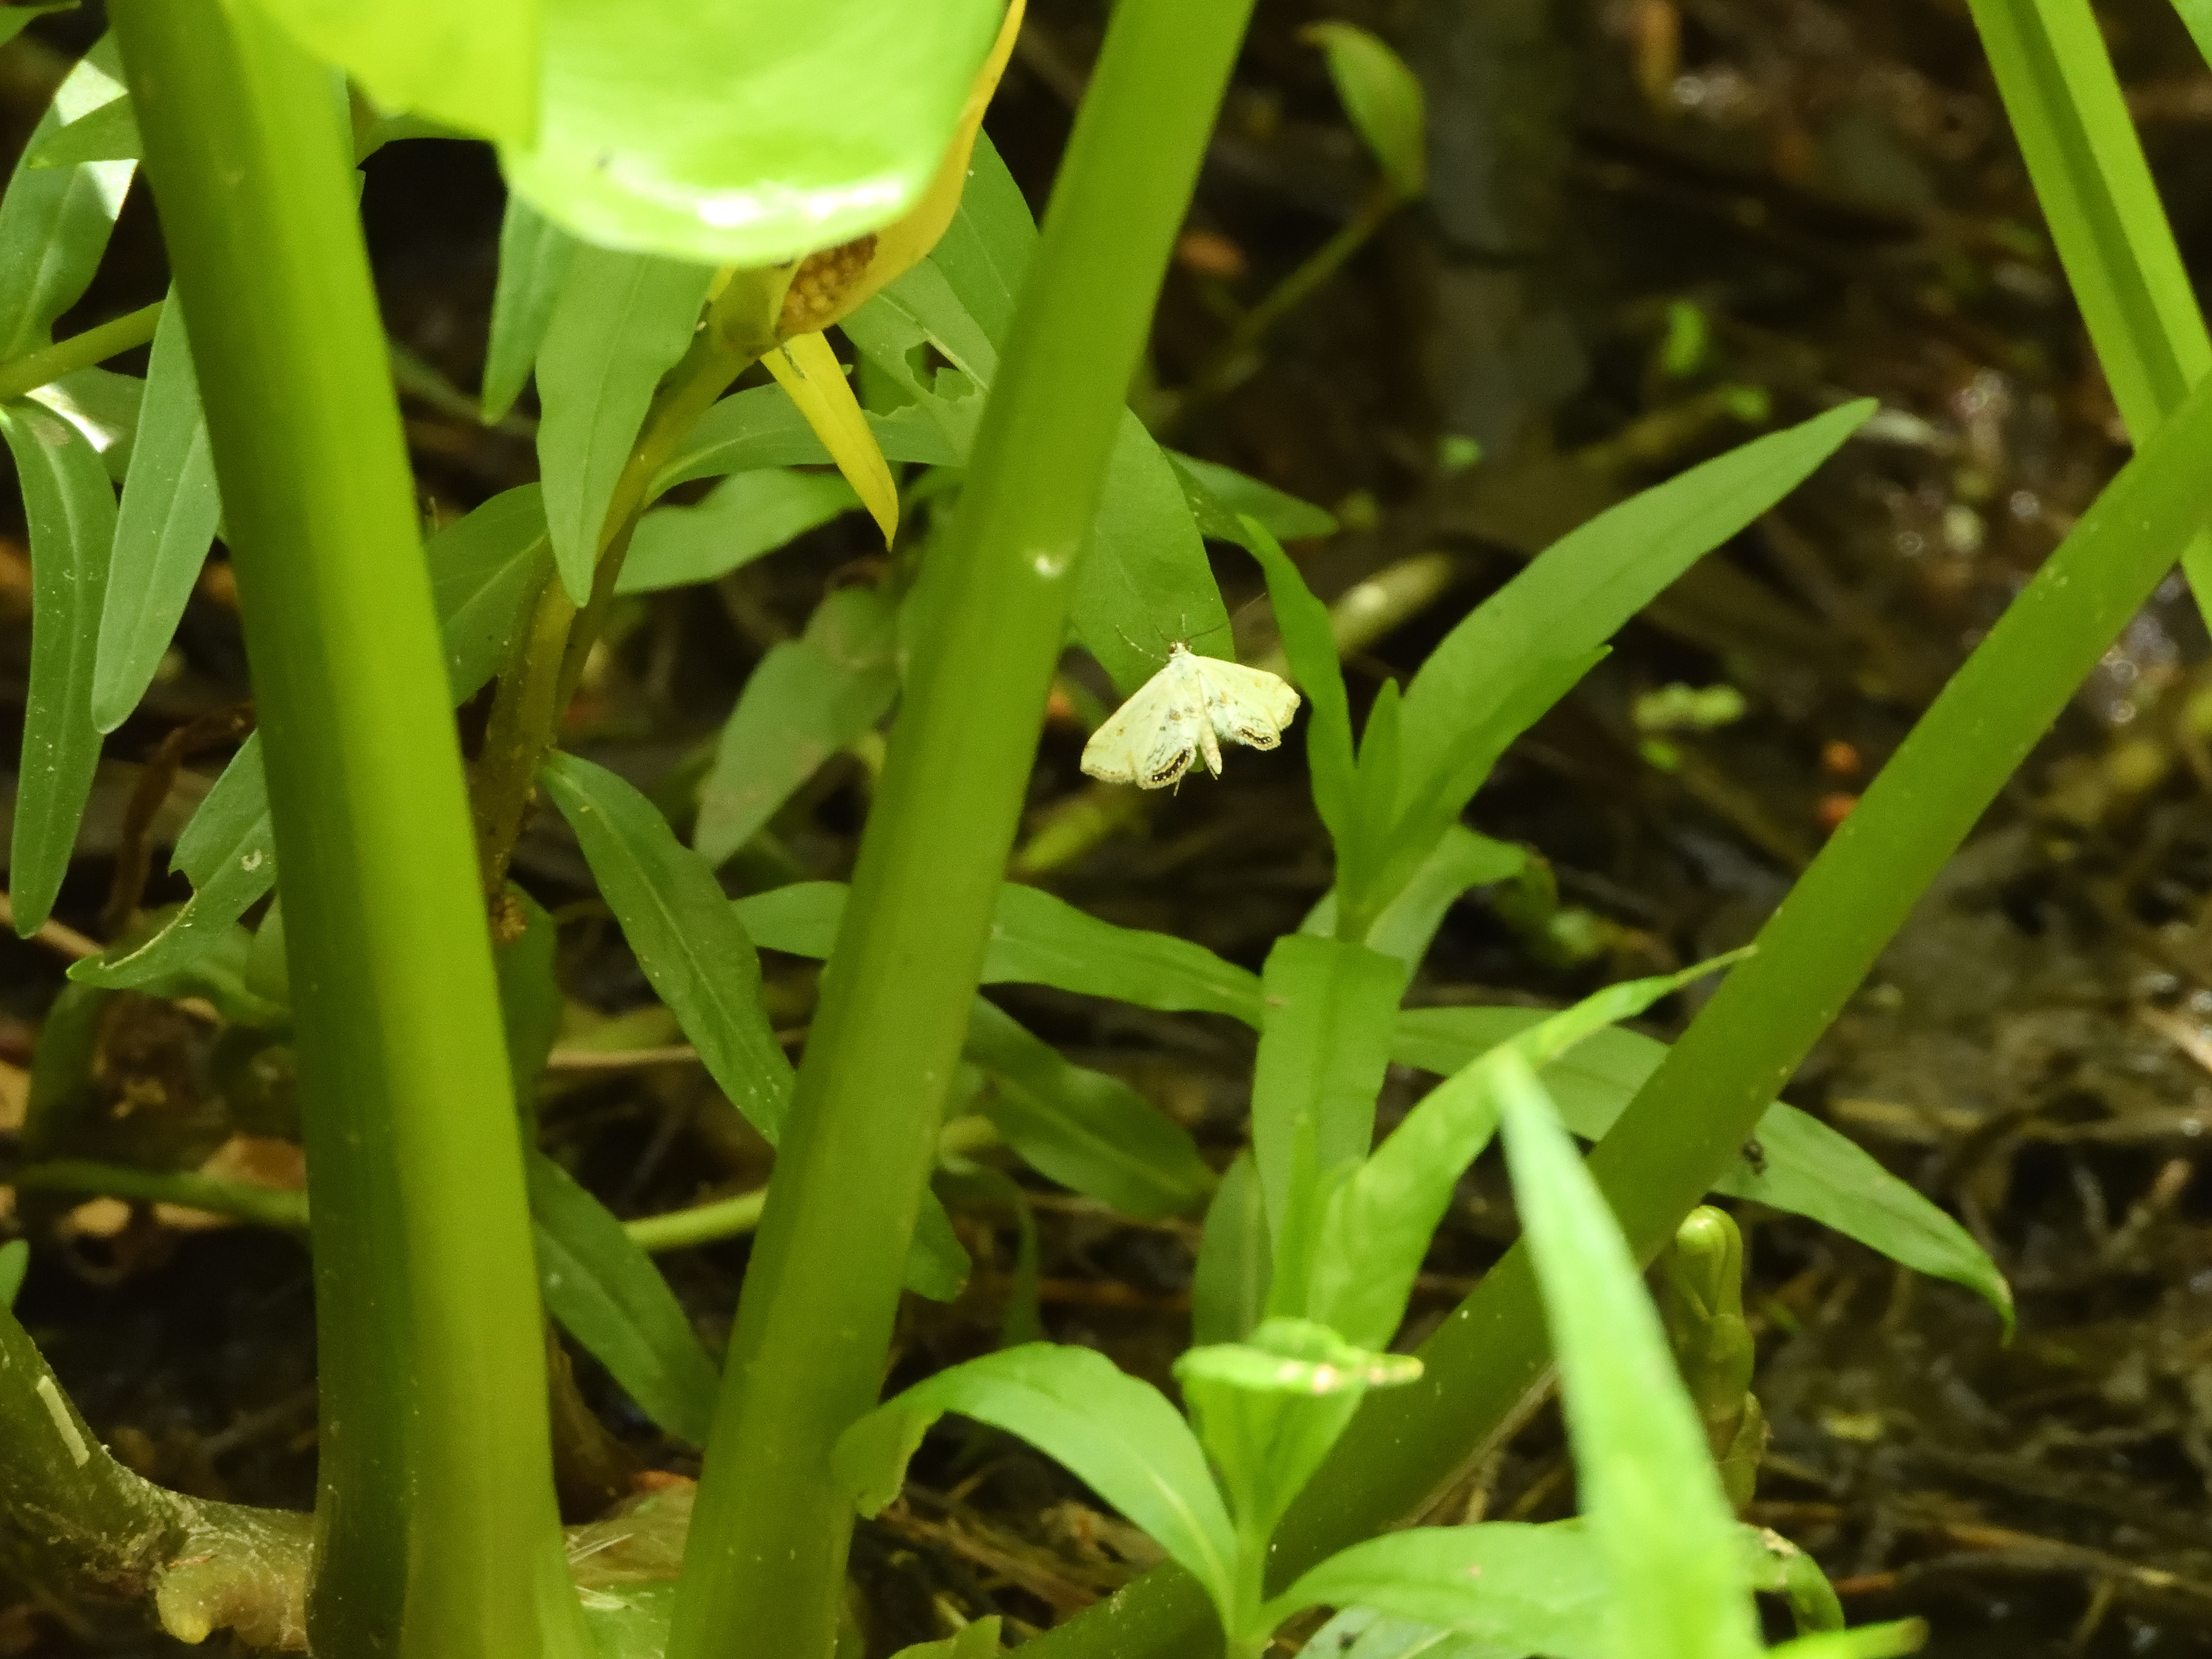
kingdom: Animalia
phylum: Arthropoda
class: Insecta
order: Lepidoptera
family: Crambidae
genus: Cataclysta
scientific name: Cataclysta lemnata
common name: Small china-mark
